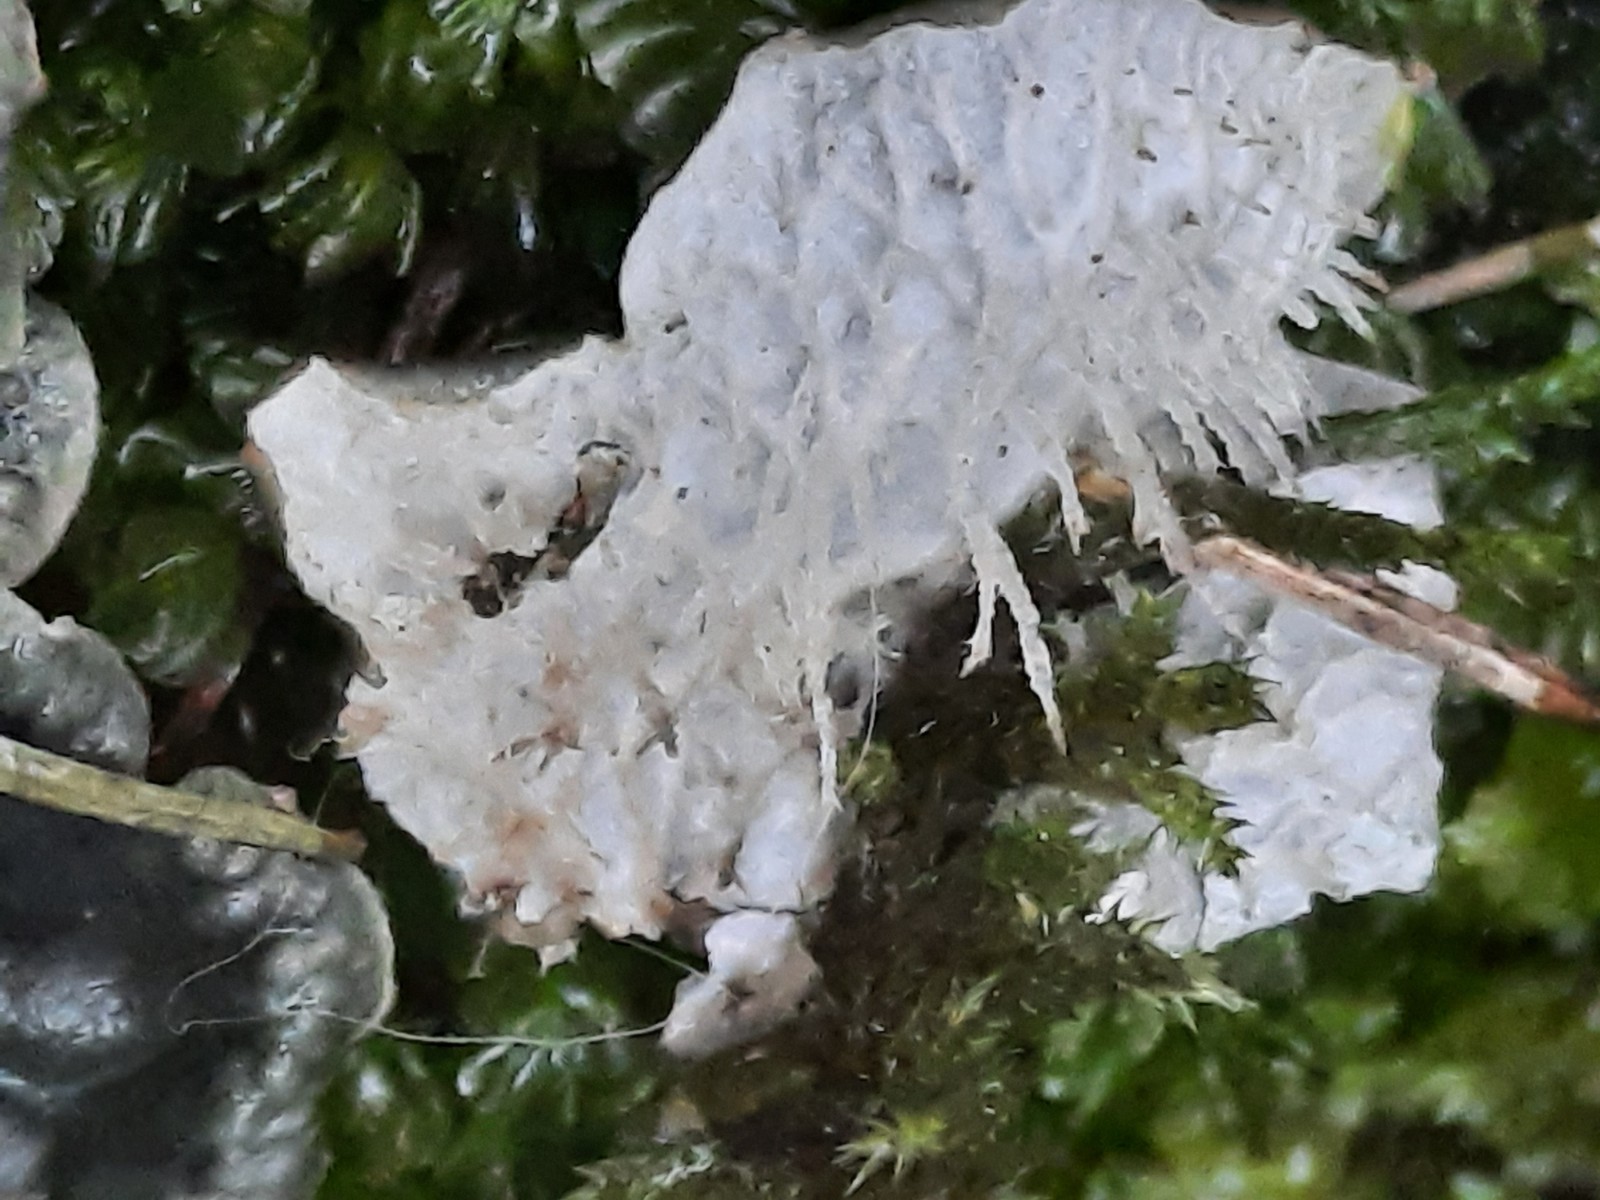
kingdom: Fungi
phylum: Ascomycota
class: Lecanoromycetes
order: Peltigerales
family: Peltigeraceae
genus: Peltigera
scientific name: Peltigera membranacea
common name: tynd skjoldlav
